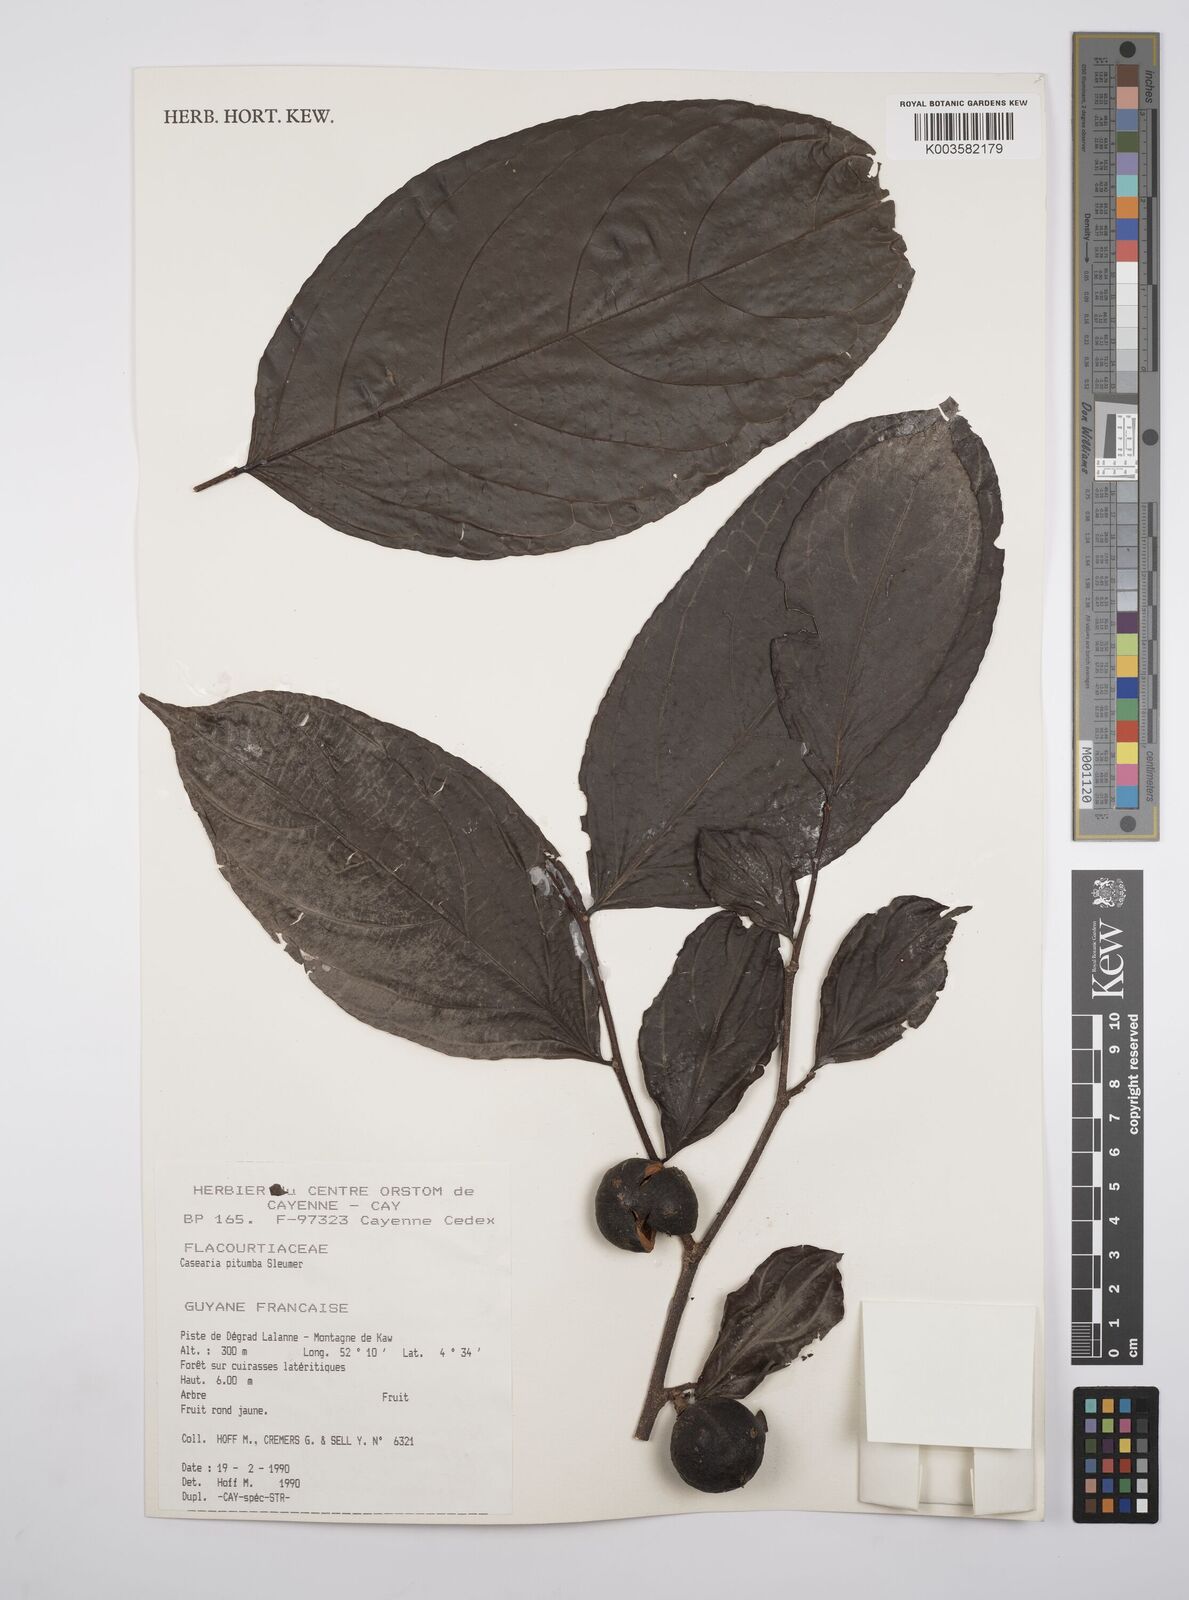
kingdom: Plantae
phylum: Tracheophyta
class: Magnoliopsida
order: Malpighiales
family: Salicaceae
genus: Casearia
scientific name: Casearia pitumba
